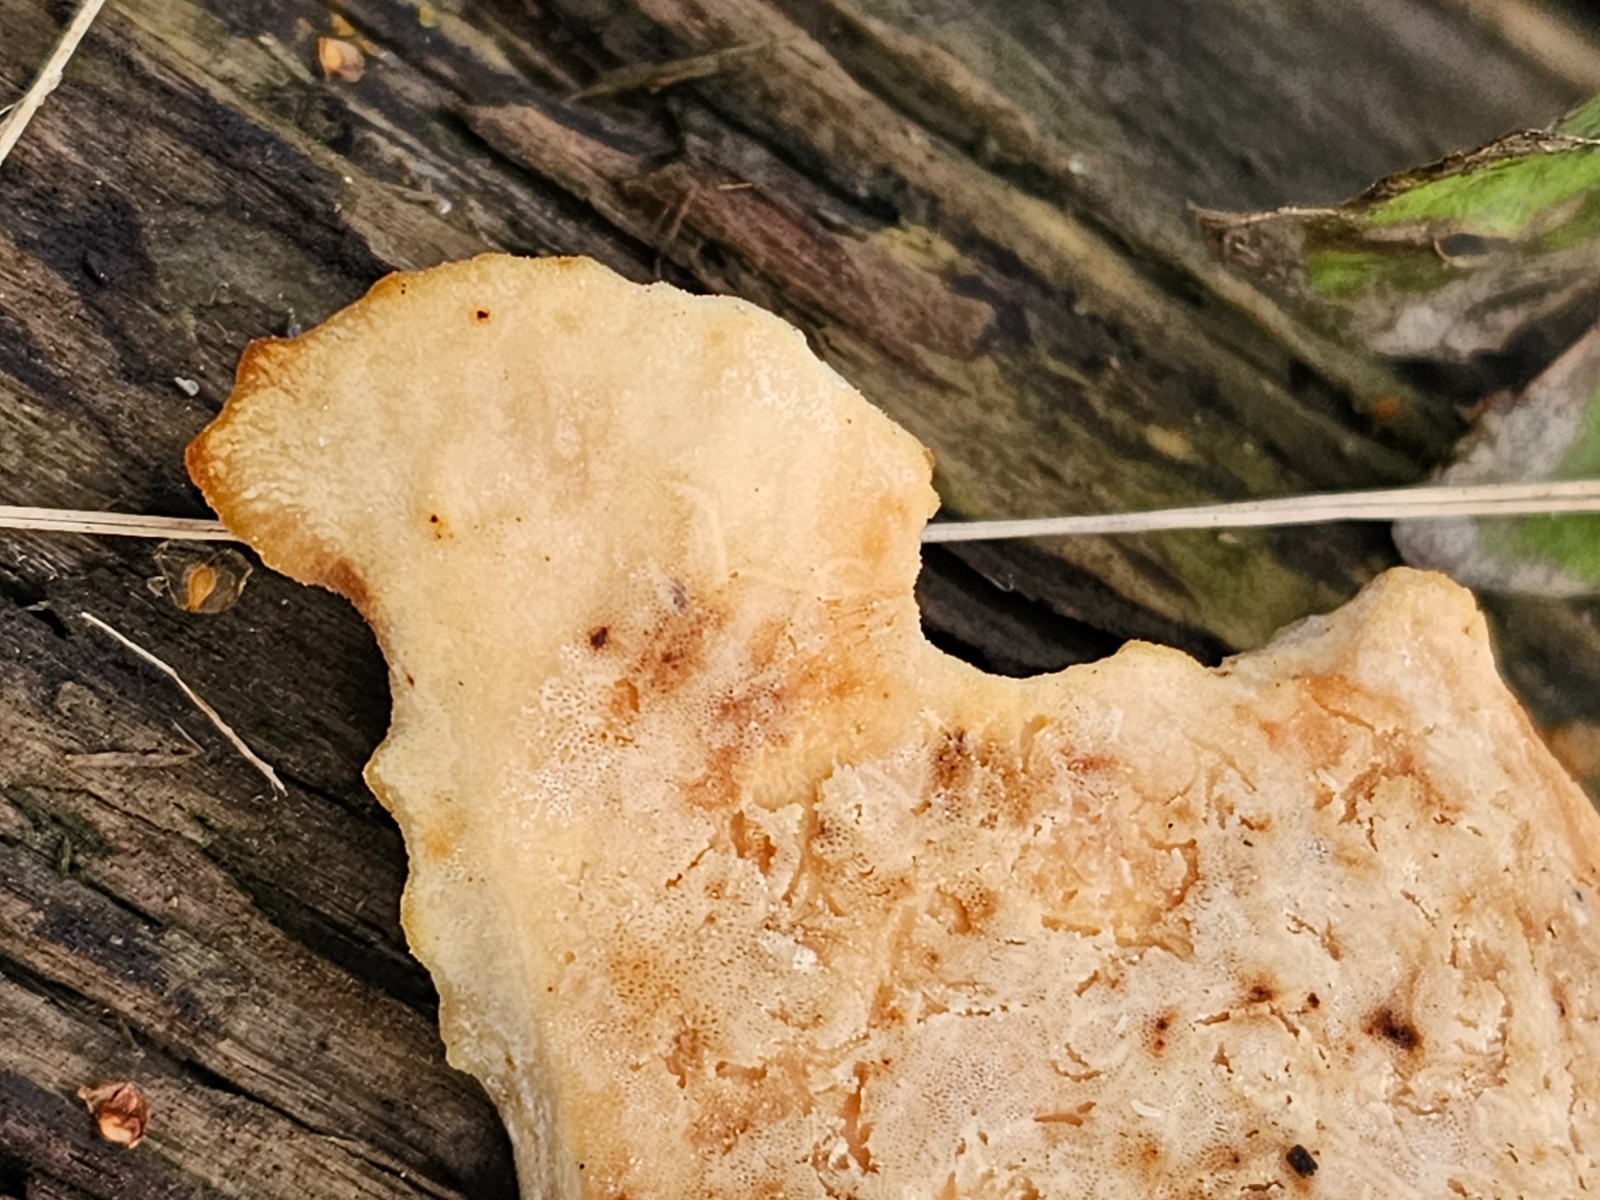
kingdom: Fungi
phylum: Basidiomycota
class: Agaricomycetes
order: Polyporales
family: Polyporaceae
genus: Picipes
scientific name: Picipes badius
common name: kastaniebrun stilkporesvamp
